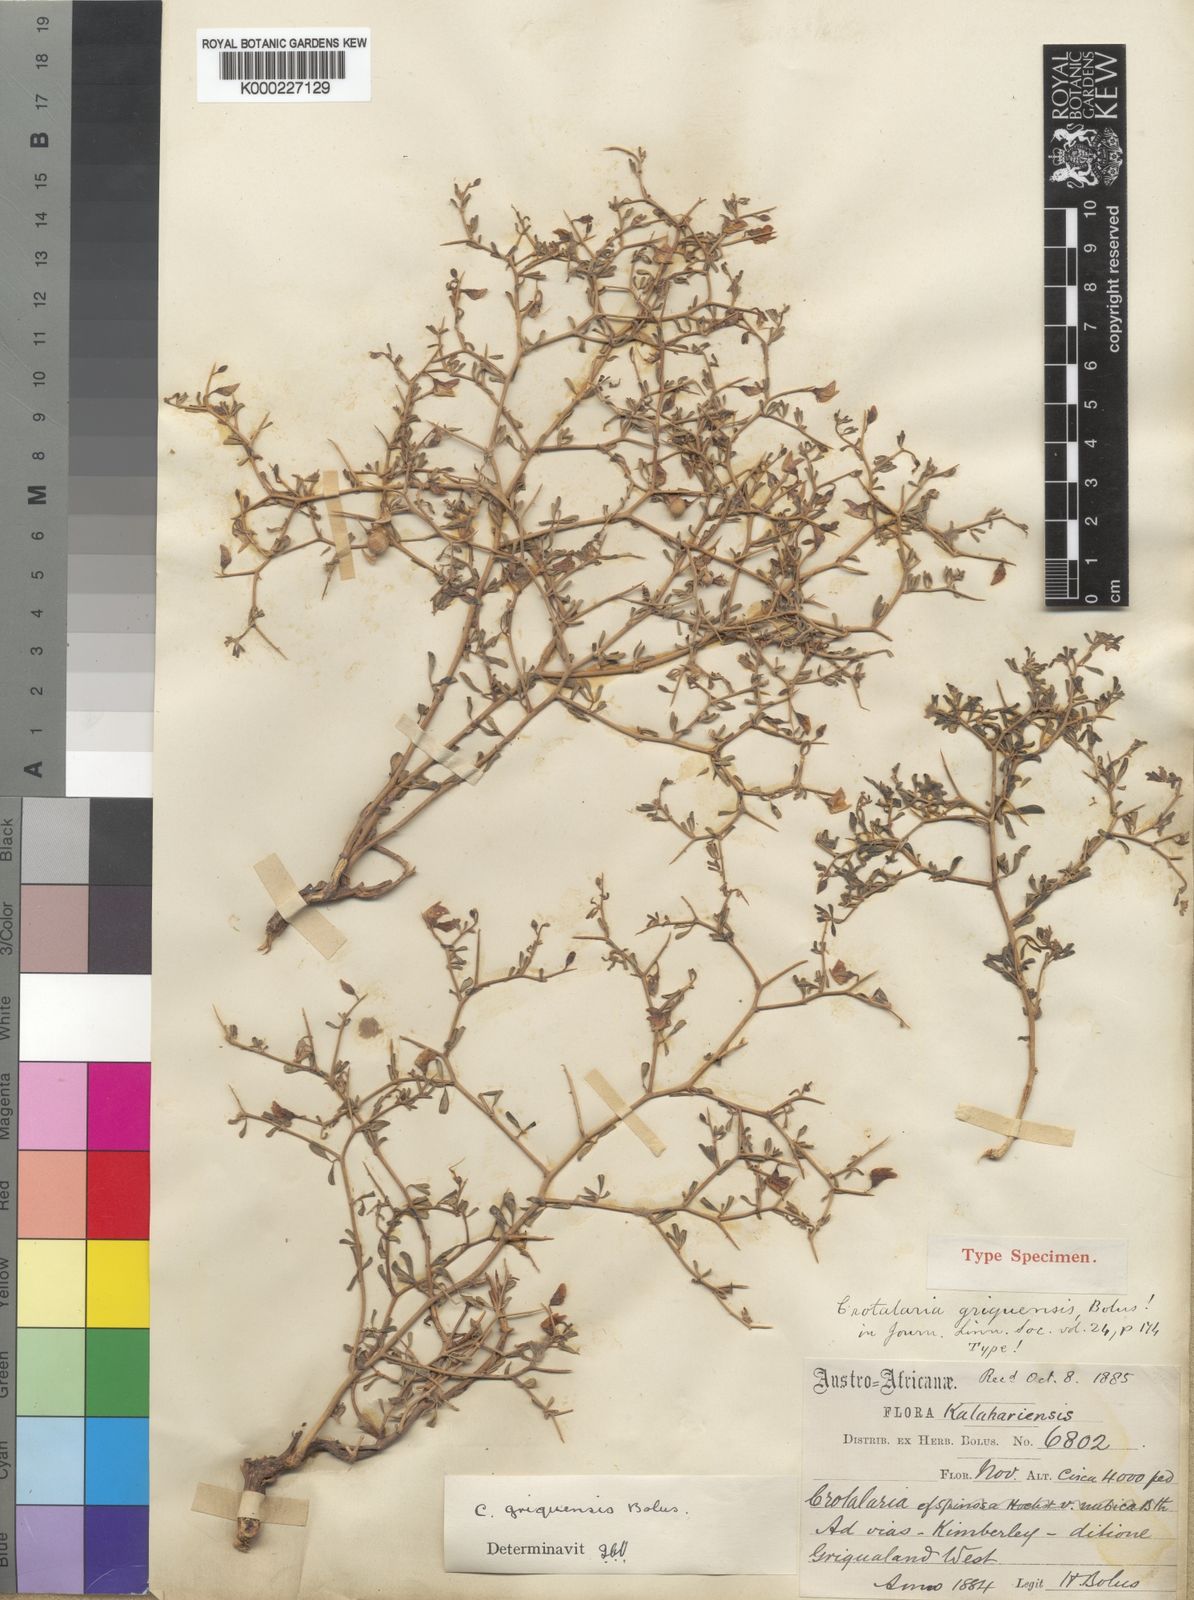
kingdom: Plantae
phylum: Tracheophyta
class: Magnoliopsida
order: Fabales
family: Fabaceae
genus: Crotalaria
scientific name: Crotalaria griquensis
